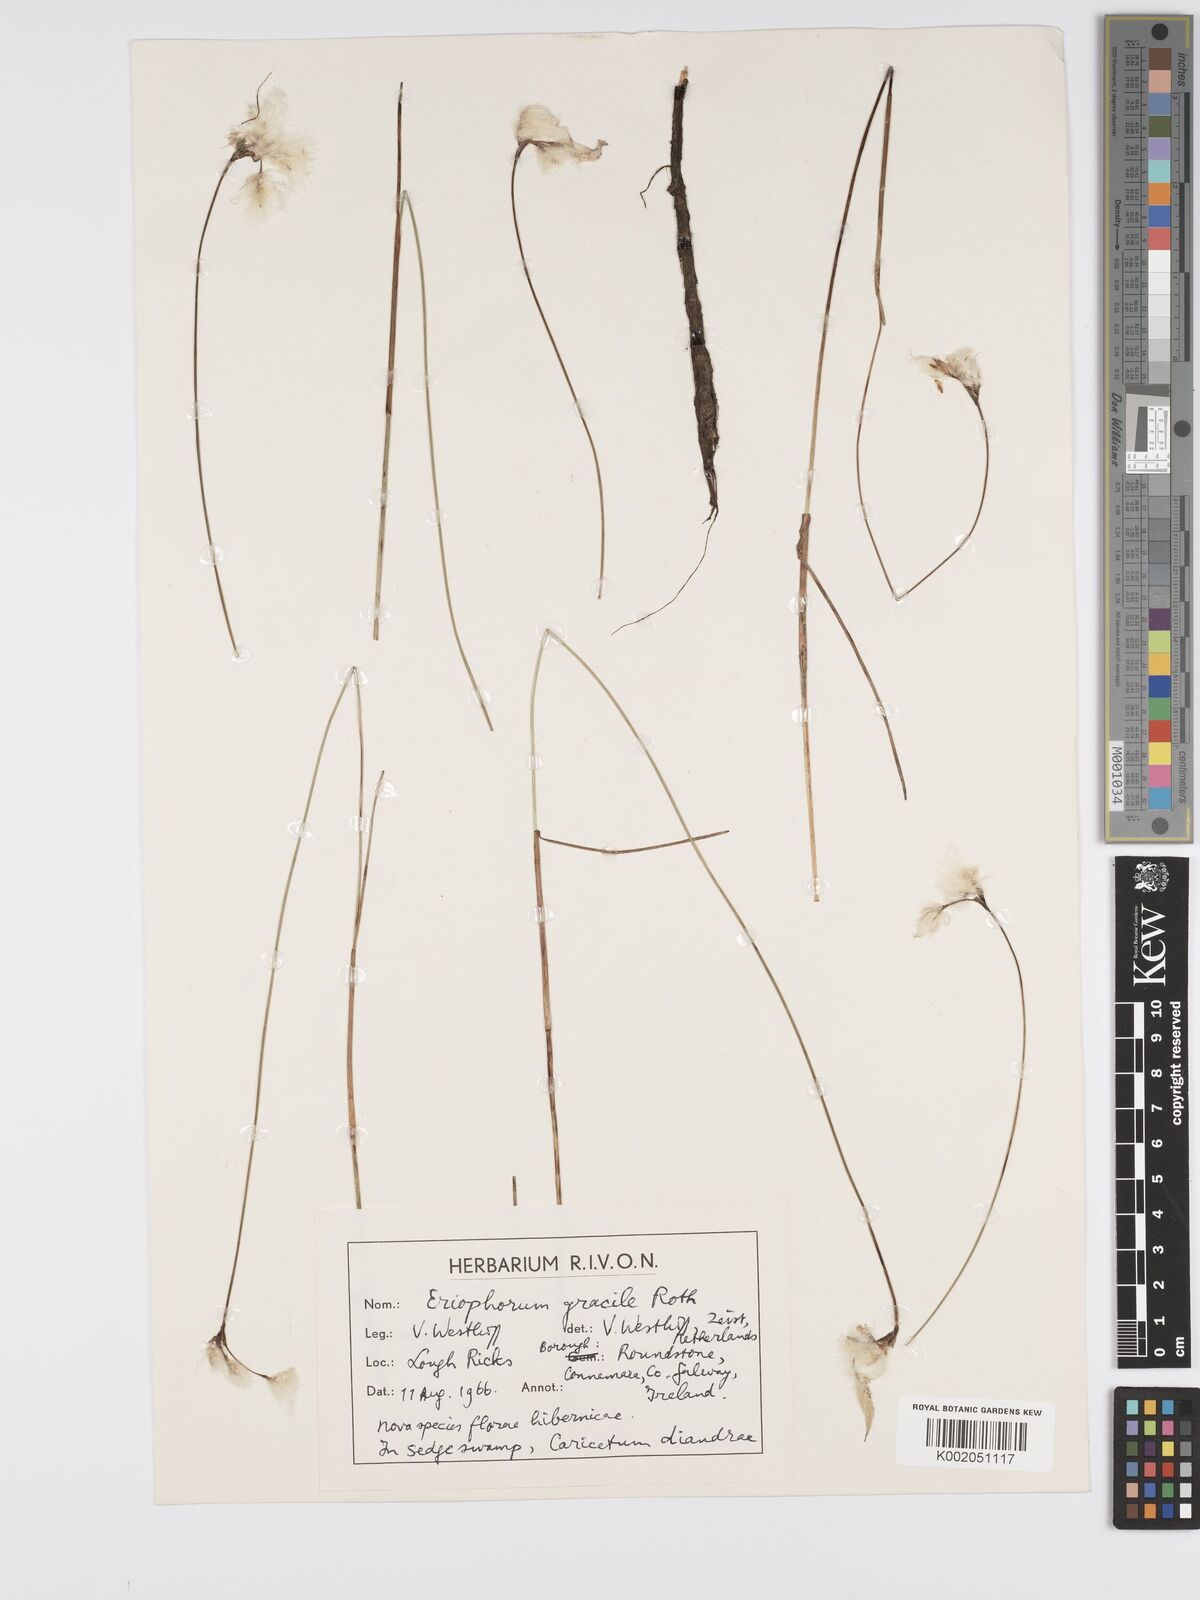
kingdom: Plantae
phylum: Tracheophyta
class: Liliopsida
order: Poales
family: Cyperaceae
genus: Eriophorum
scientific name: Eriophorum gracile
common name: Slender cottongrass
